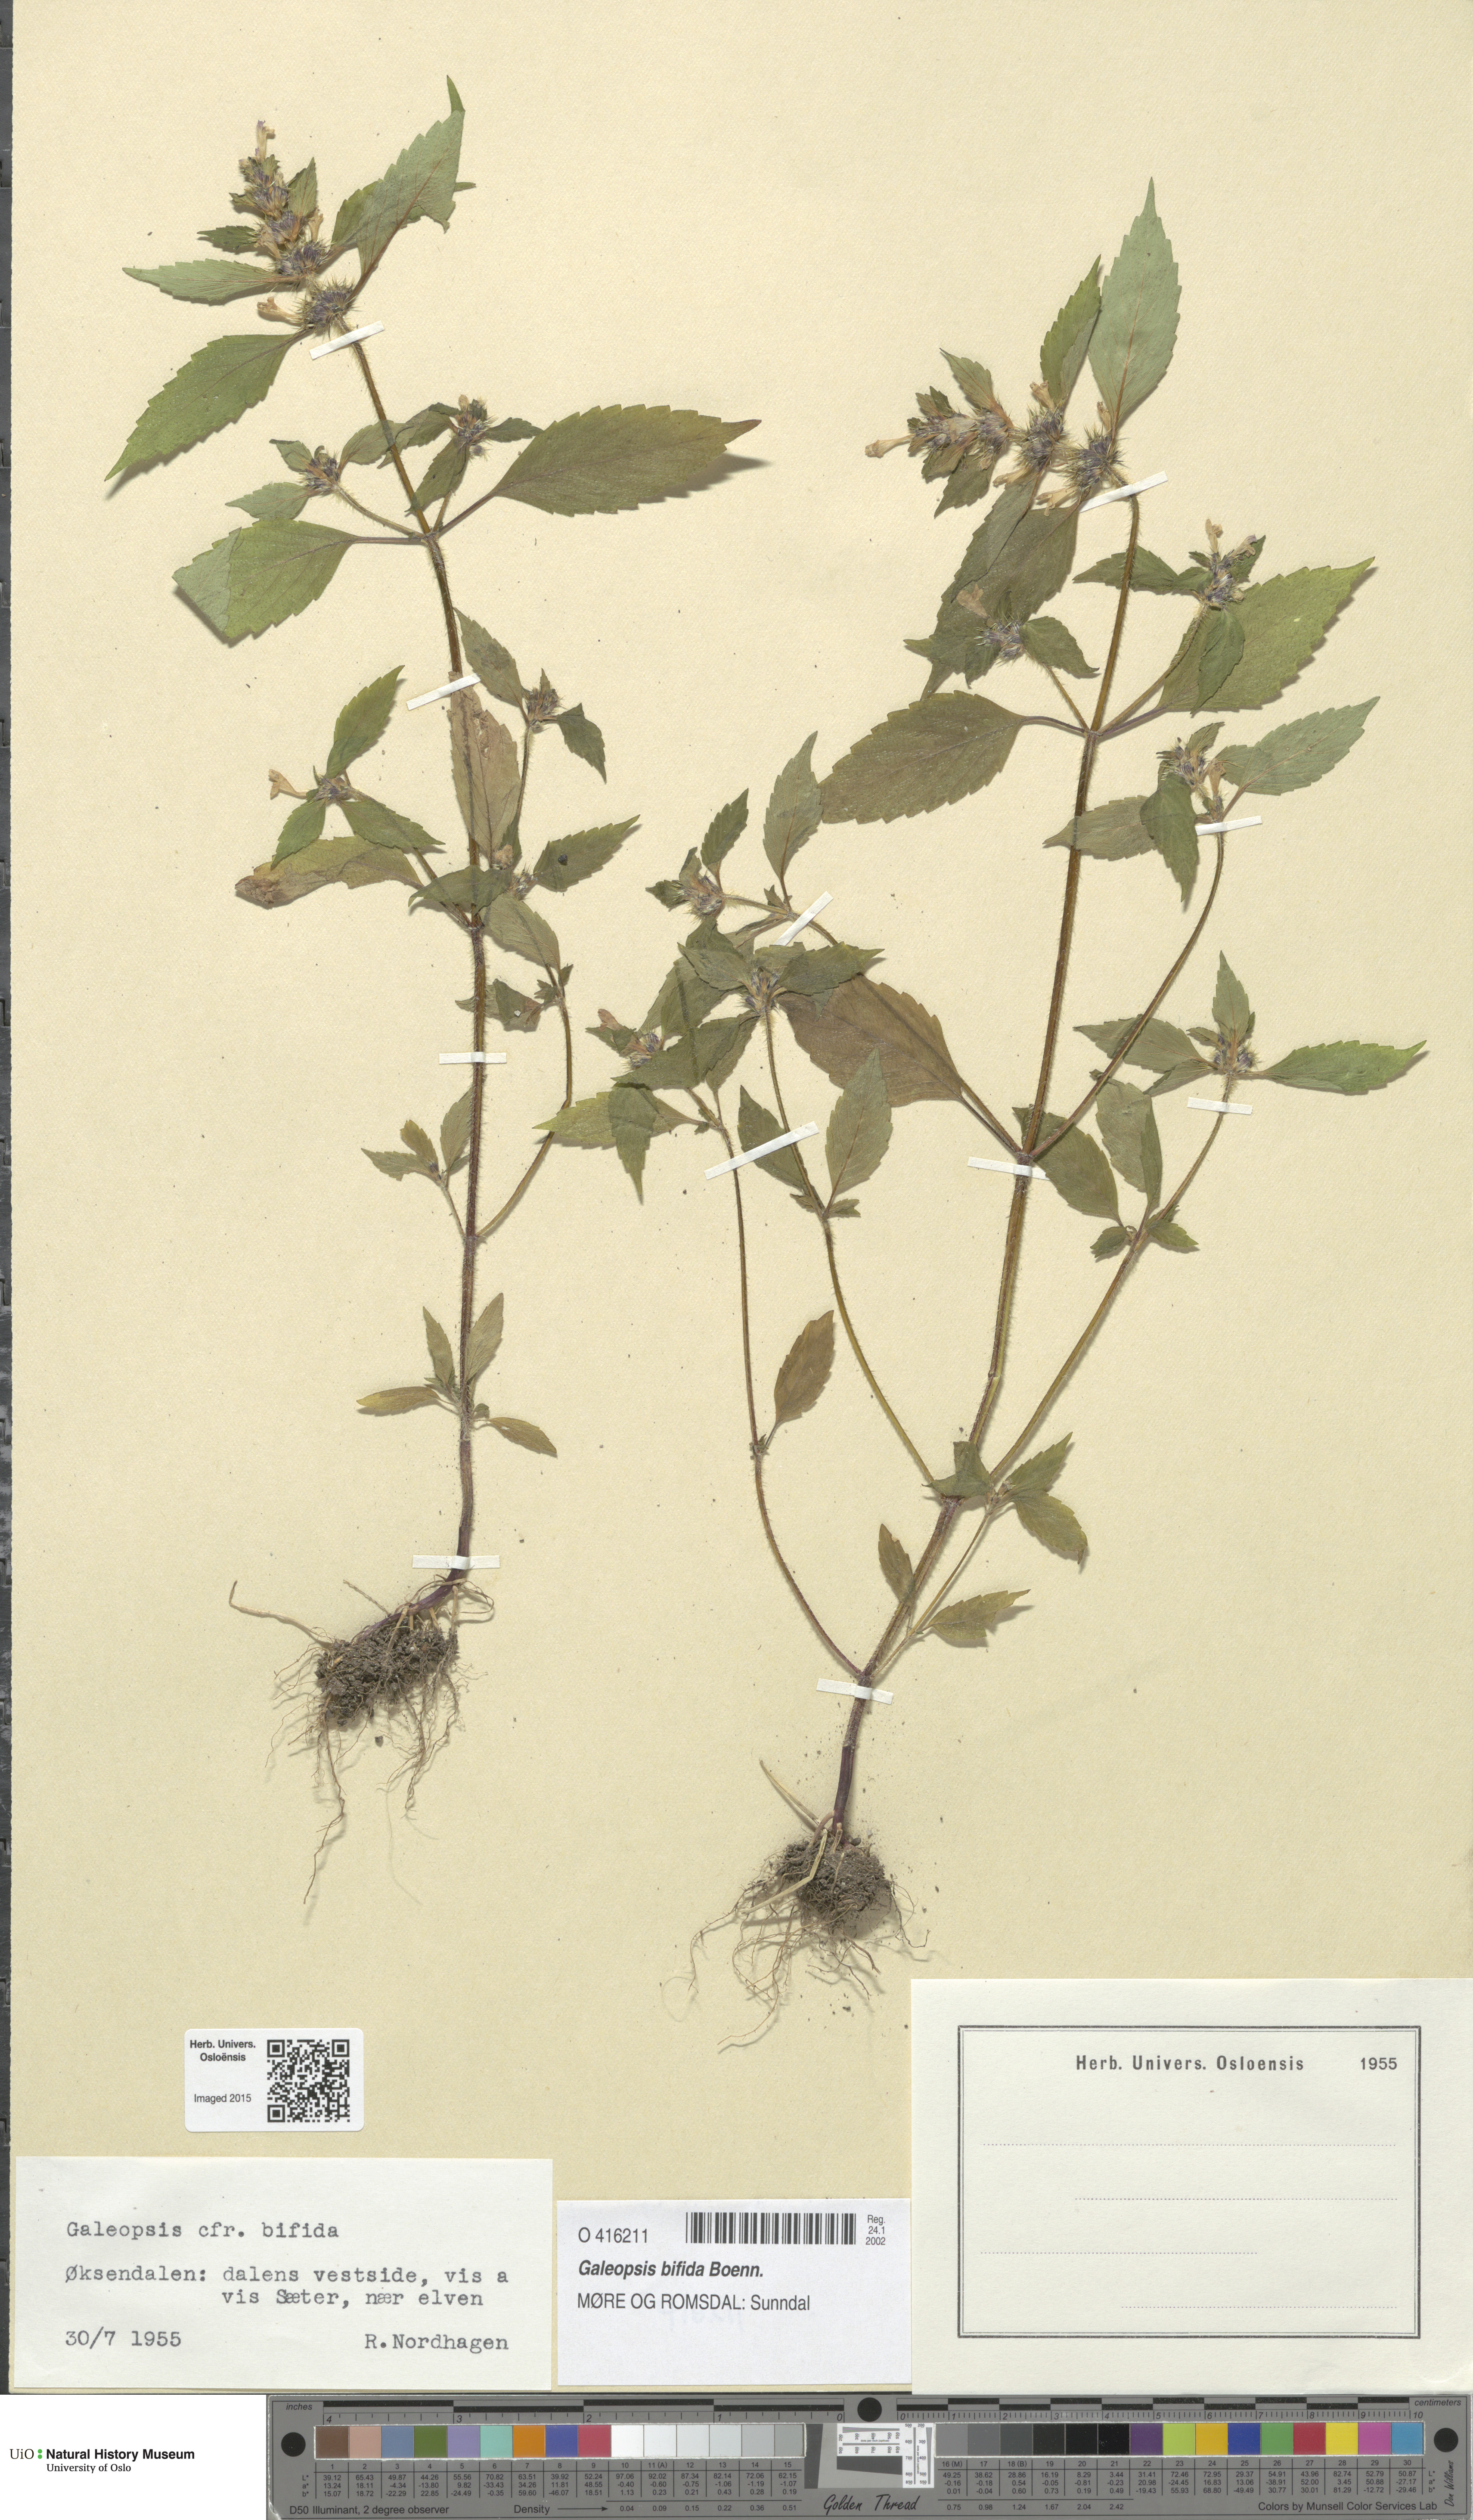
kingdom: Plantae
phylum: Tracheophyta
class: Magnoliopsida
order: Lamiales
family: Lamiaceae
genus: Galeopsis
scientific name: Galeopsis bifida
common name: Bifid hemp-nettle
